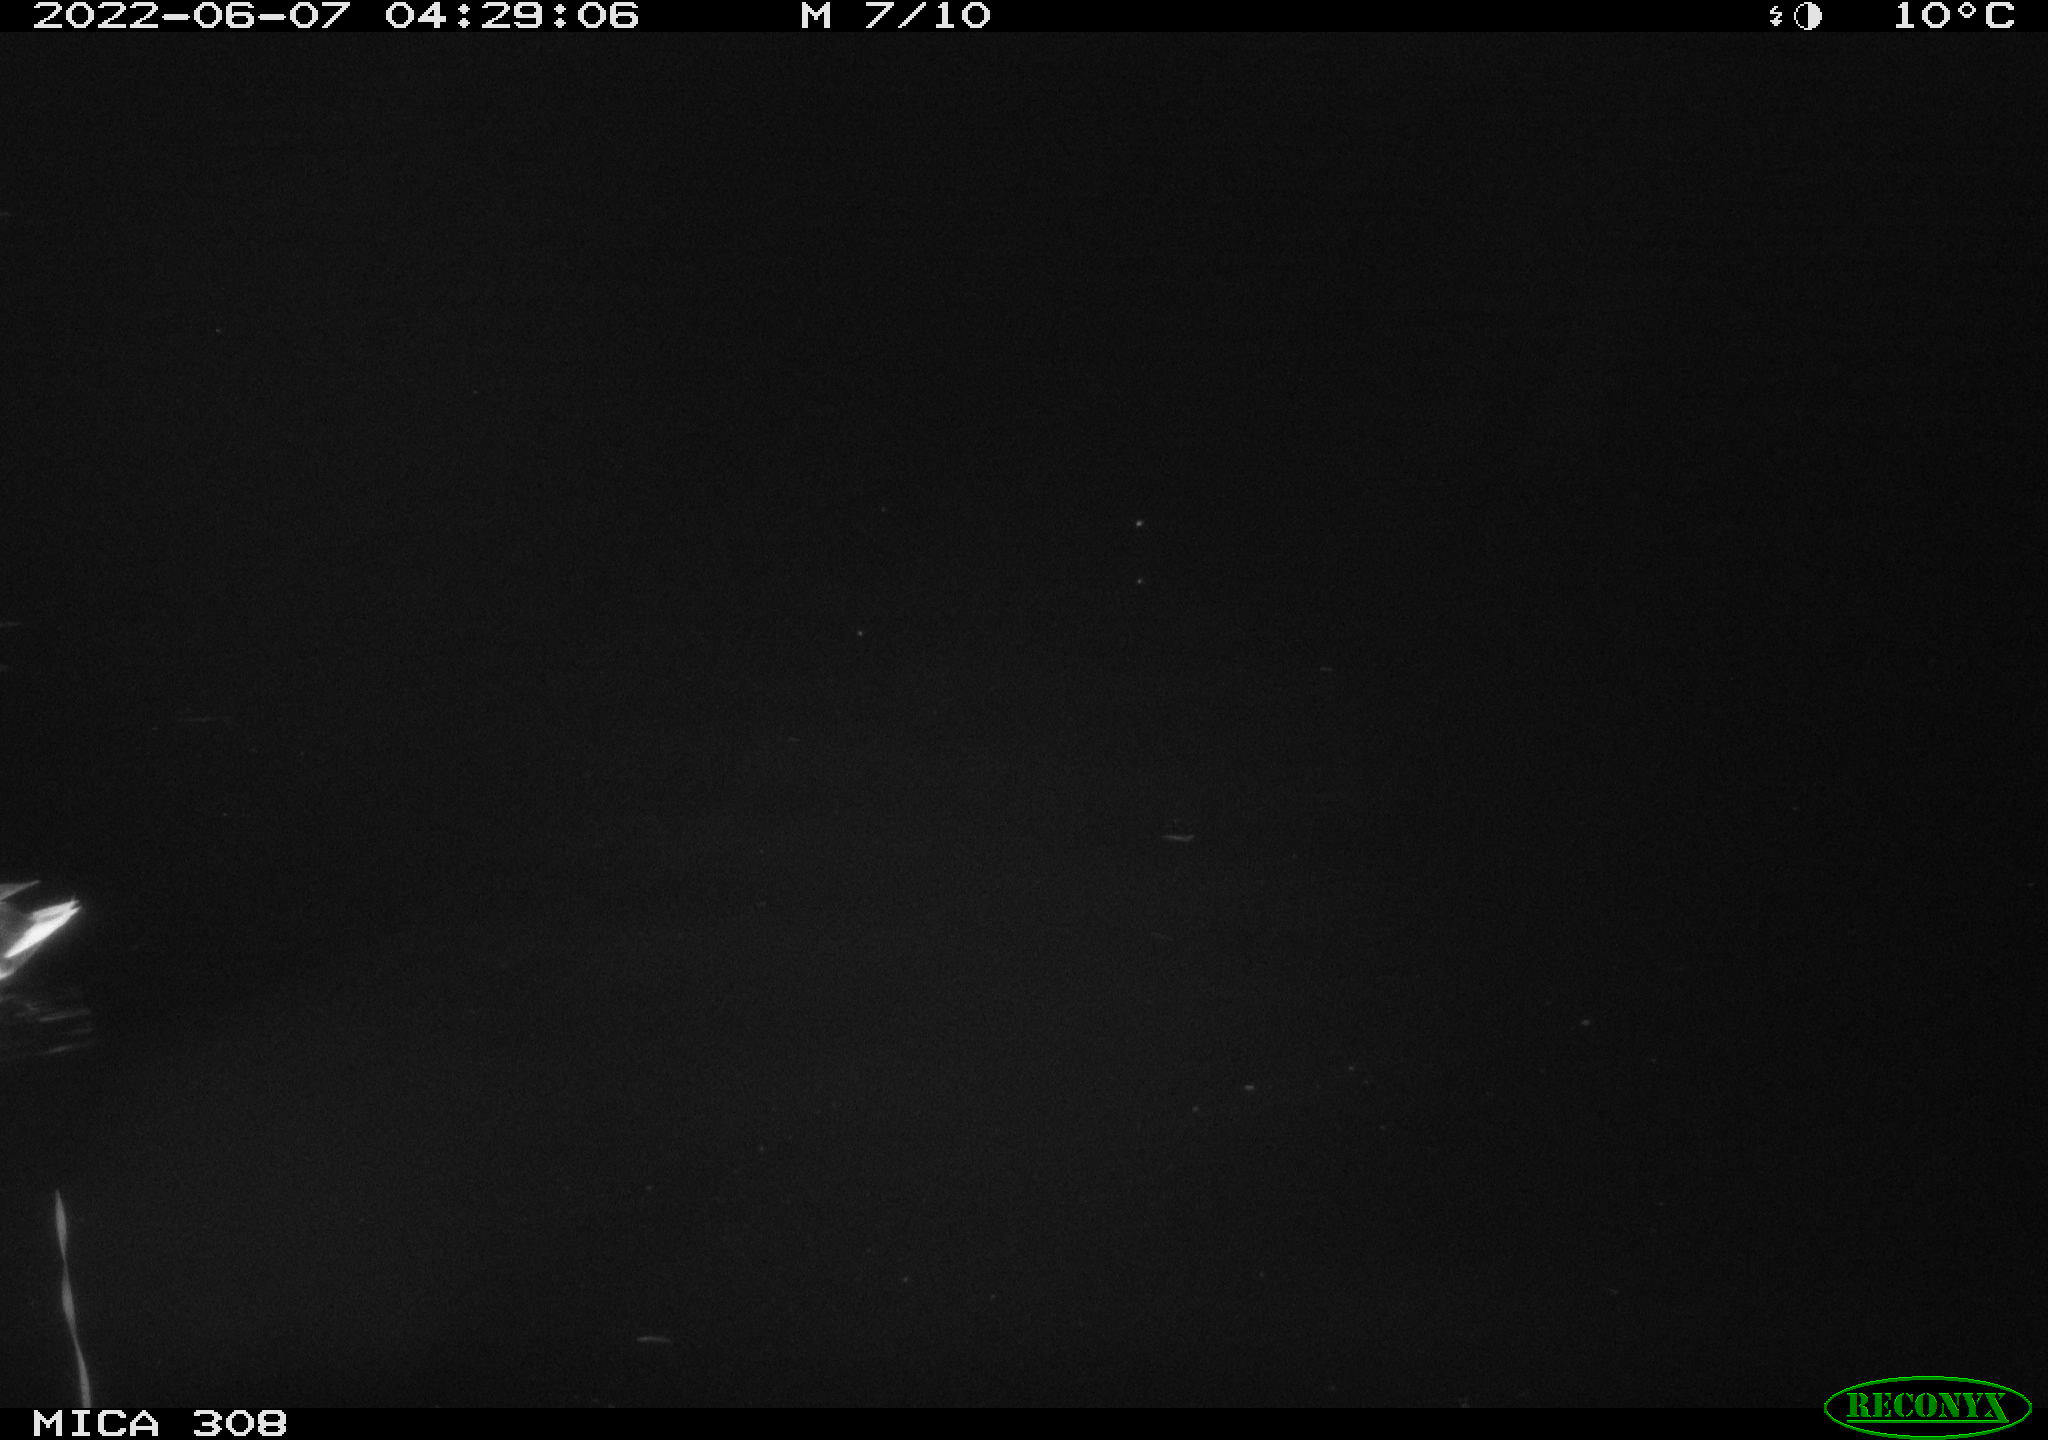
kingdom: Animalia
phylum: Chordata
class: Aves
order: Anseriformes
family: Anatidae
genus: Anas
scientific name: Anas platyrhynchos
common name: Mallard
